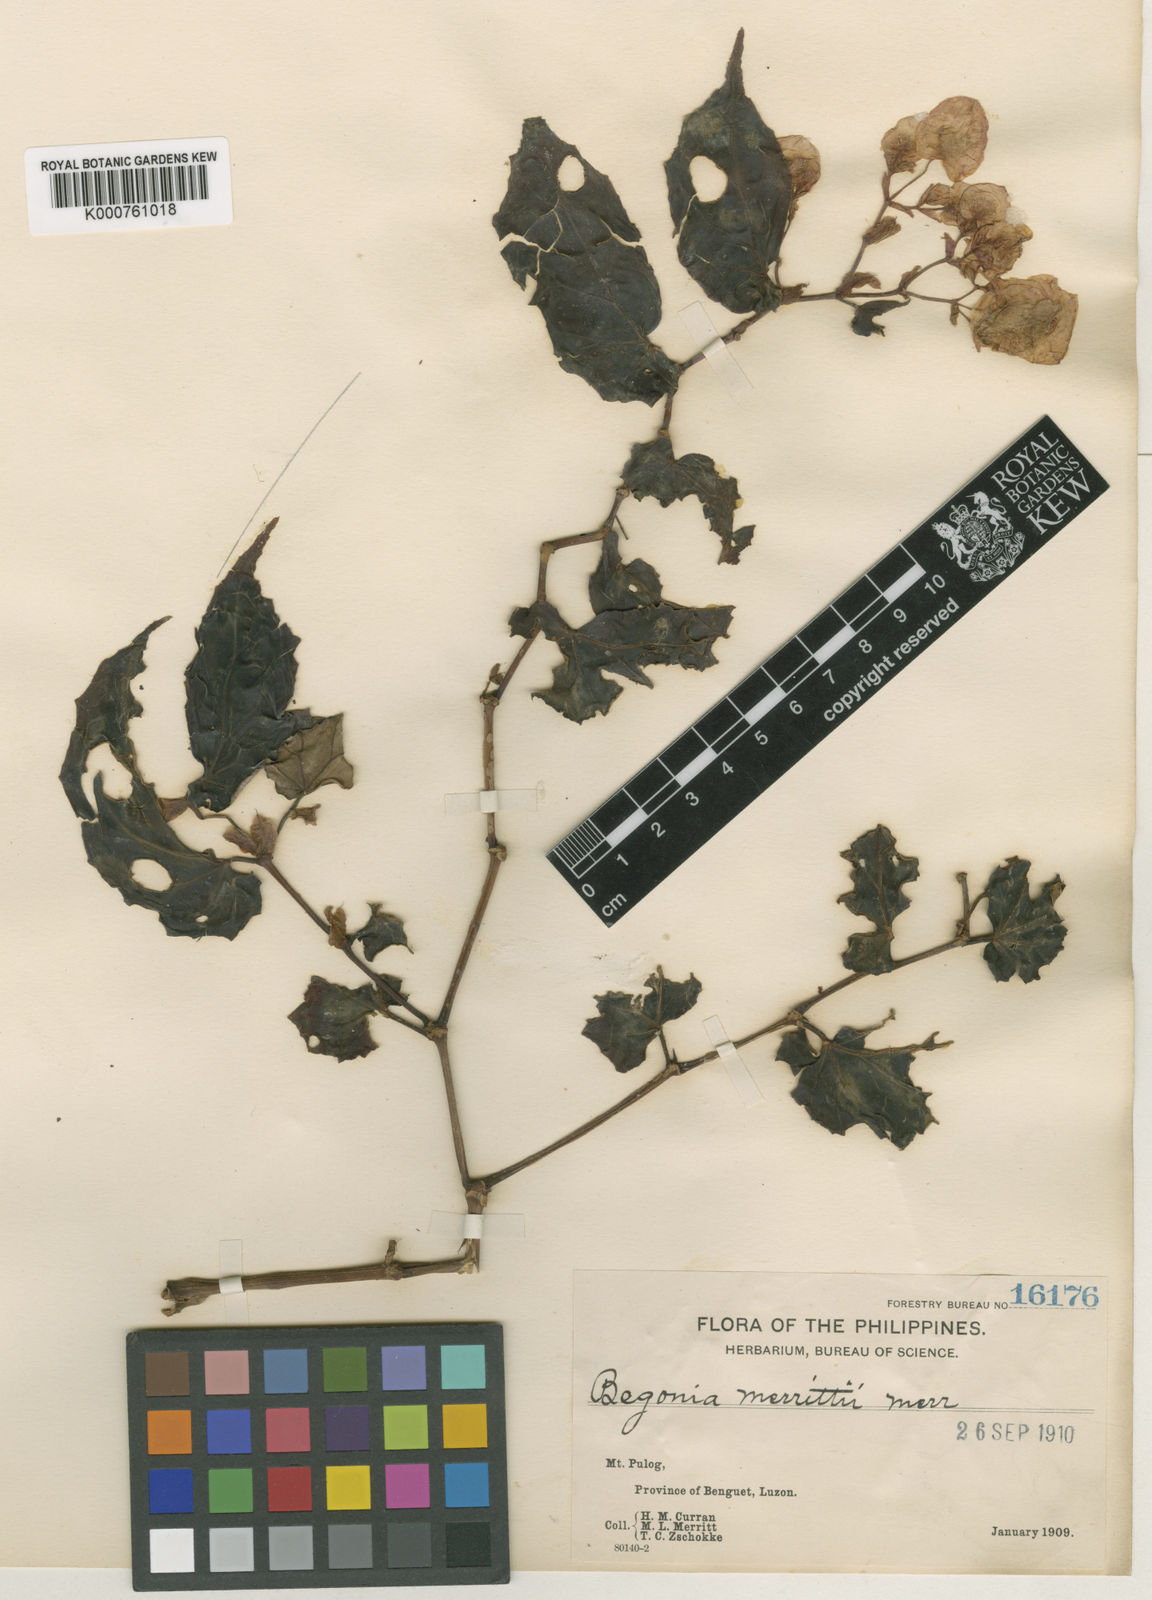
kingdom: Plantae
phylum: Tracheophyta
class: Magnoliopsida
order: Cucurbitales
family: Begoniaceae
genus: Begonia
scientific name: Begonia merrittii
